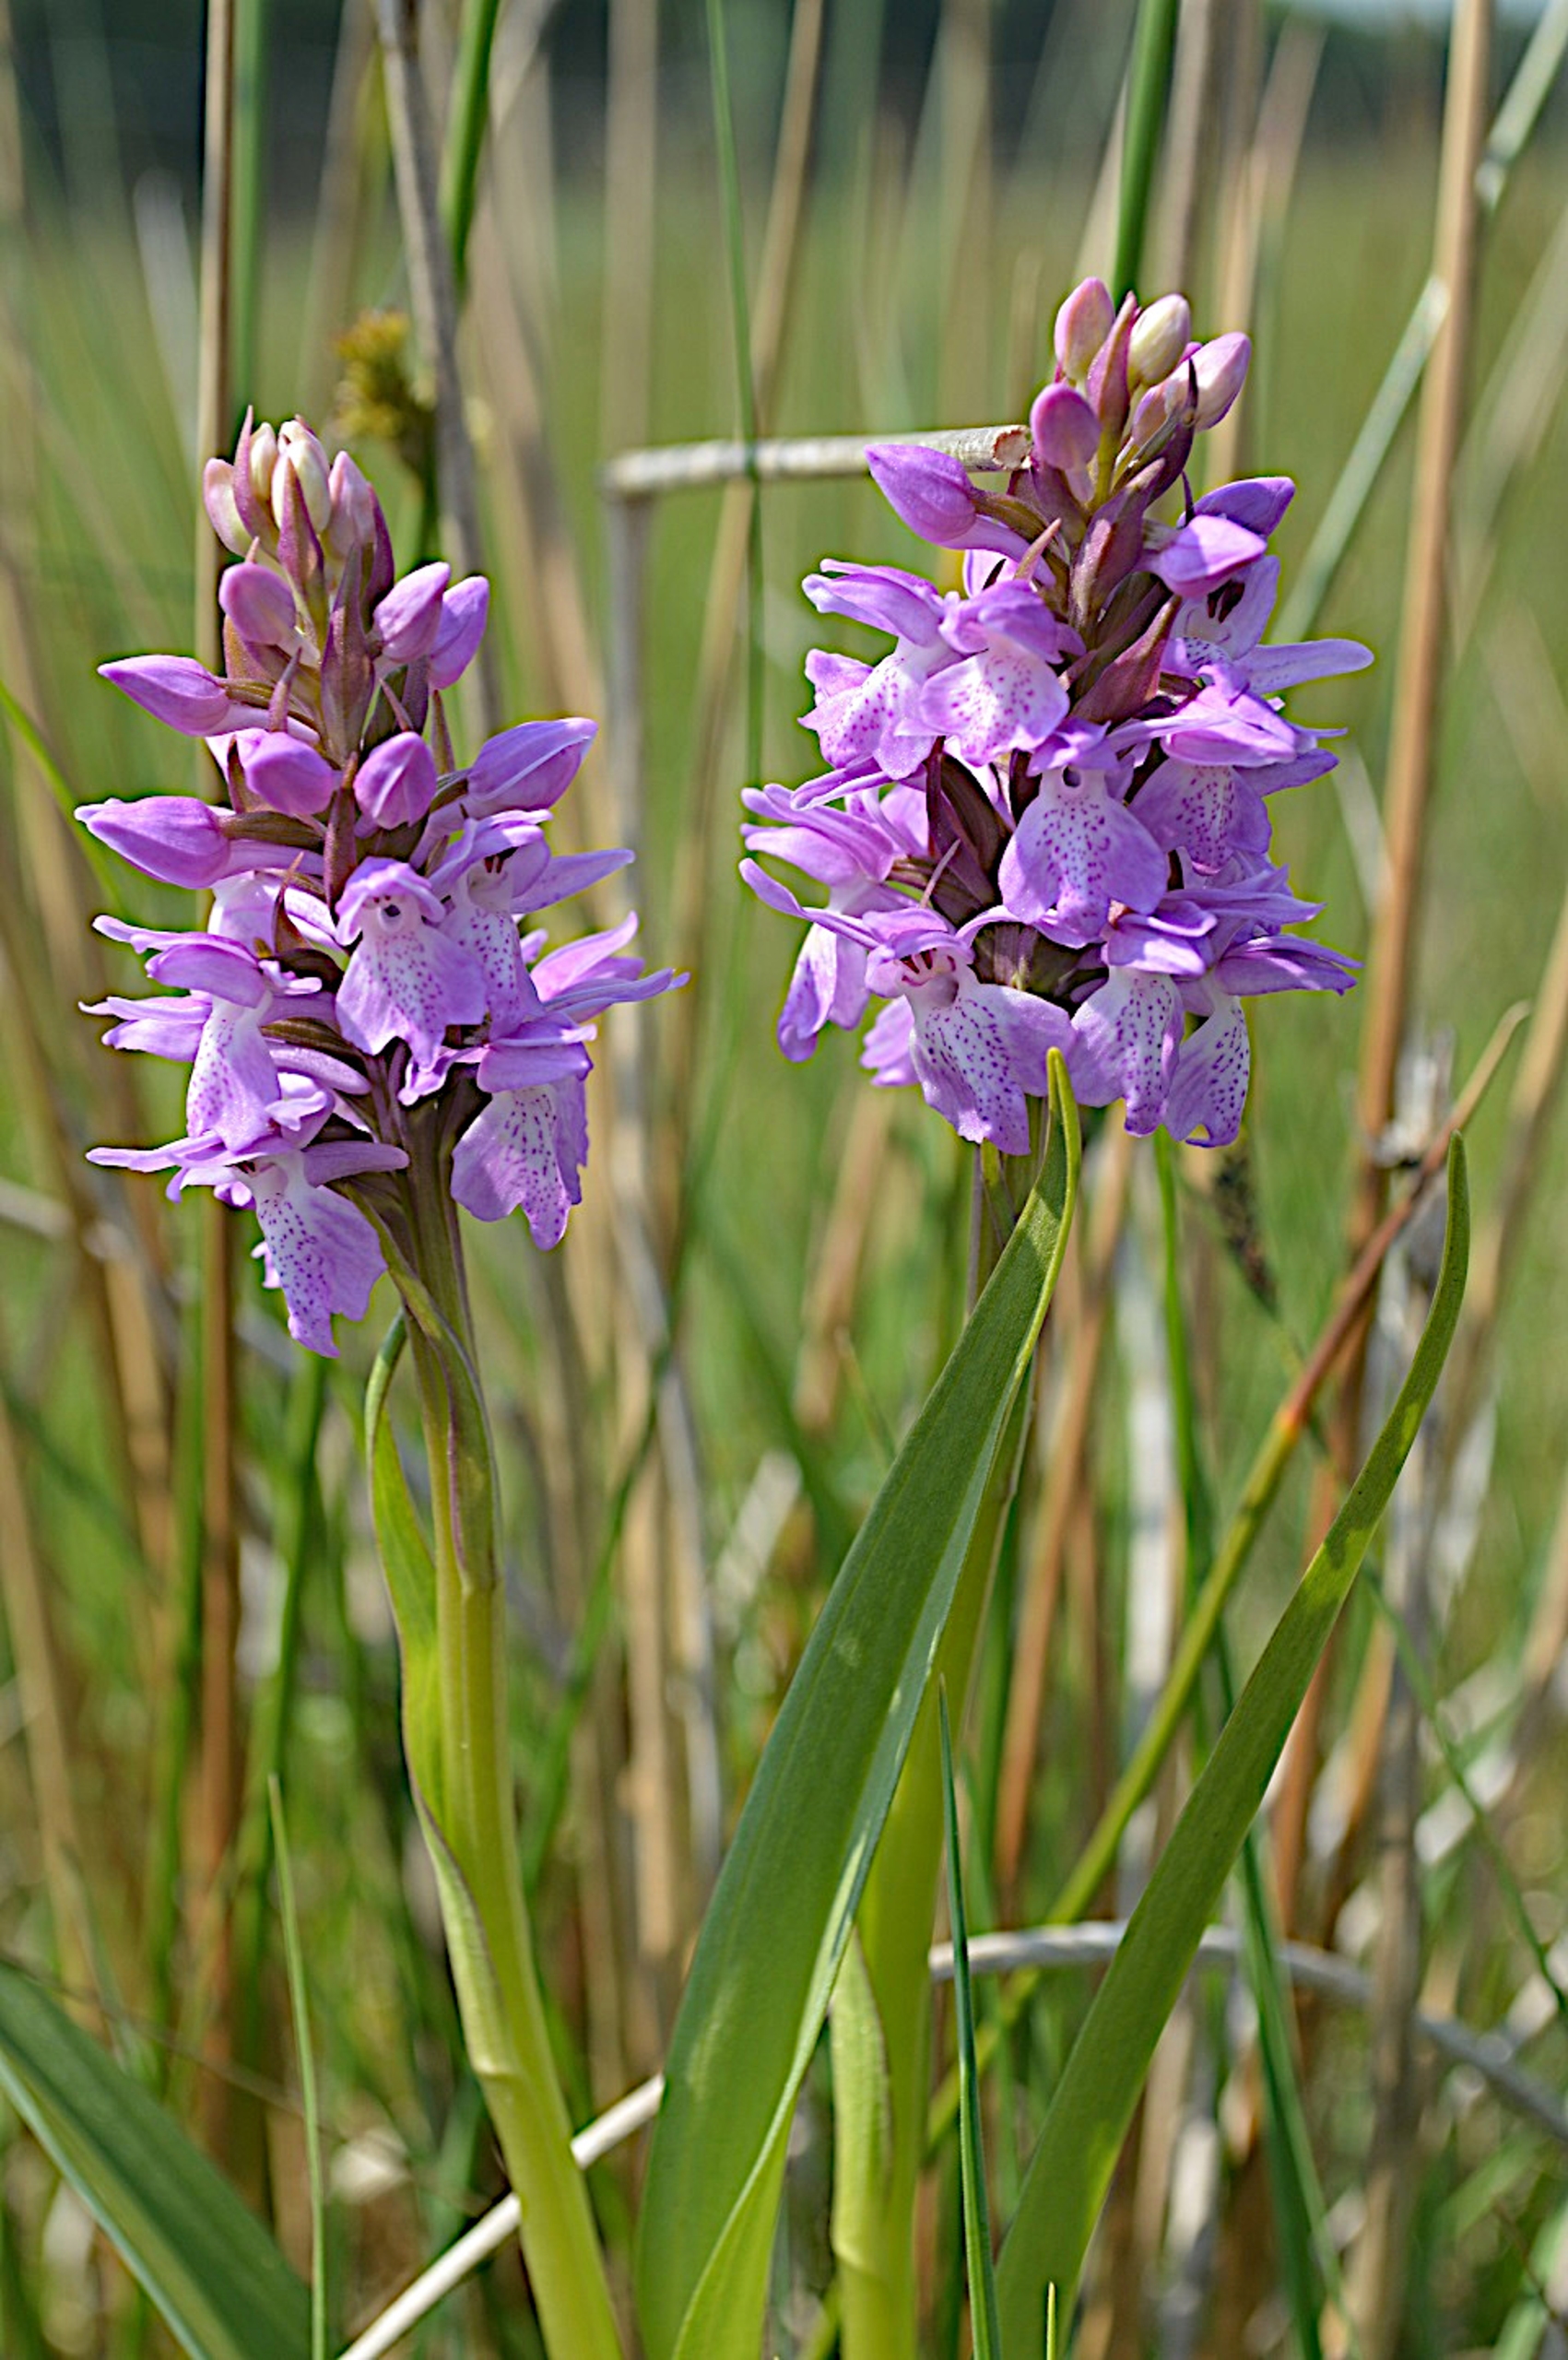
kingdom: Plantae
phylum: Tracheophyta
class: Liliopsida
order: Asparagales
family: Orchidaceae
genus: Dactylorhiza
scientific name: Dactylorhiza majalis
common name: Mos-gøgeurt
